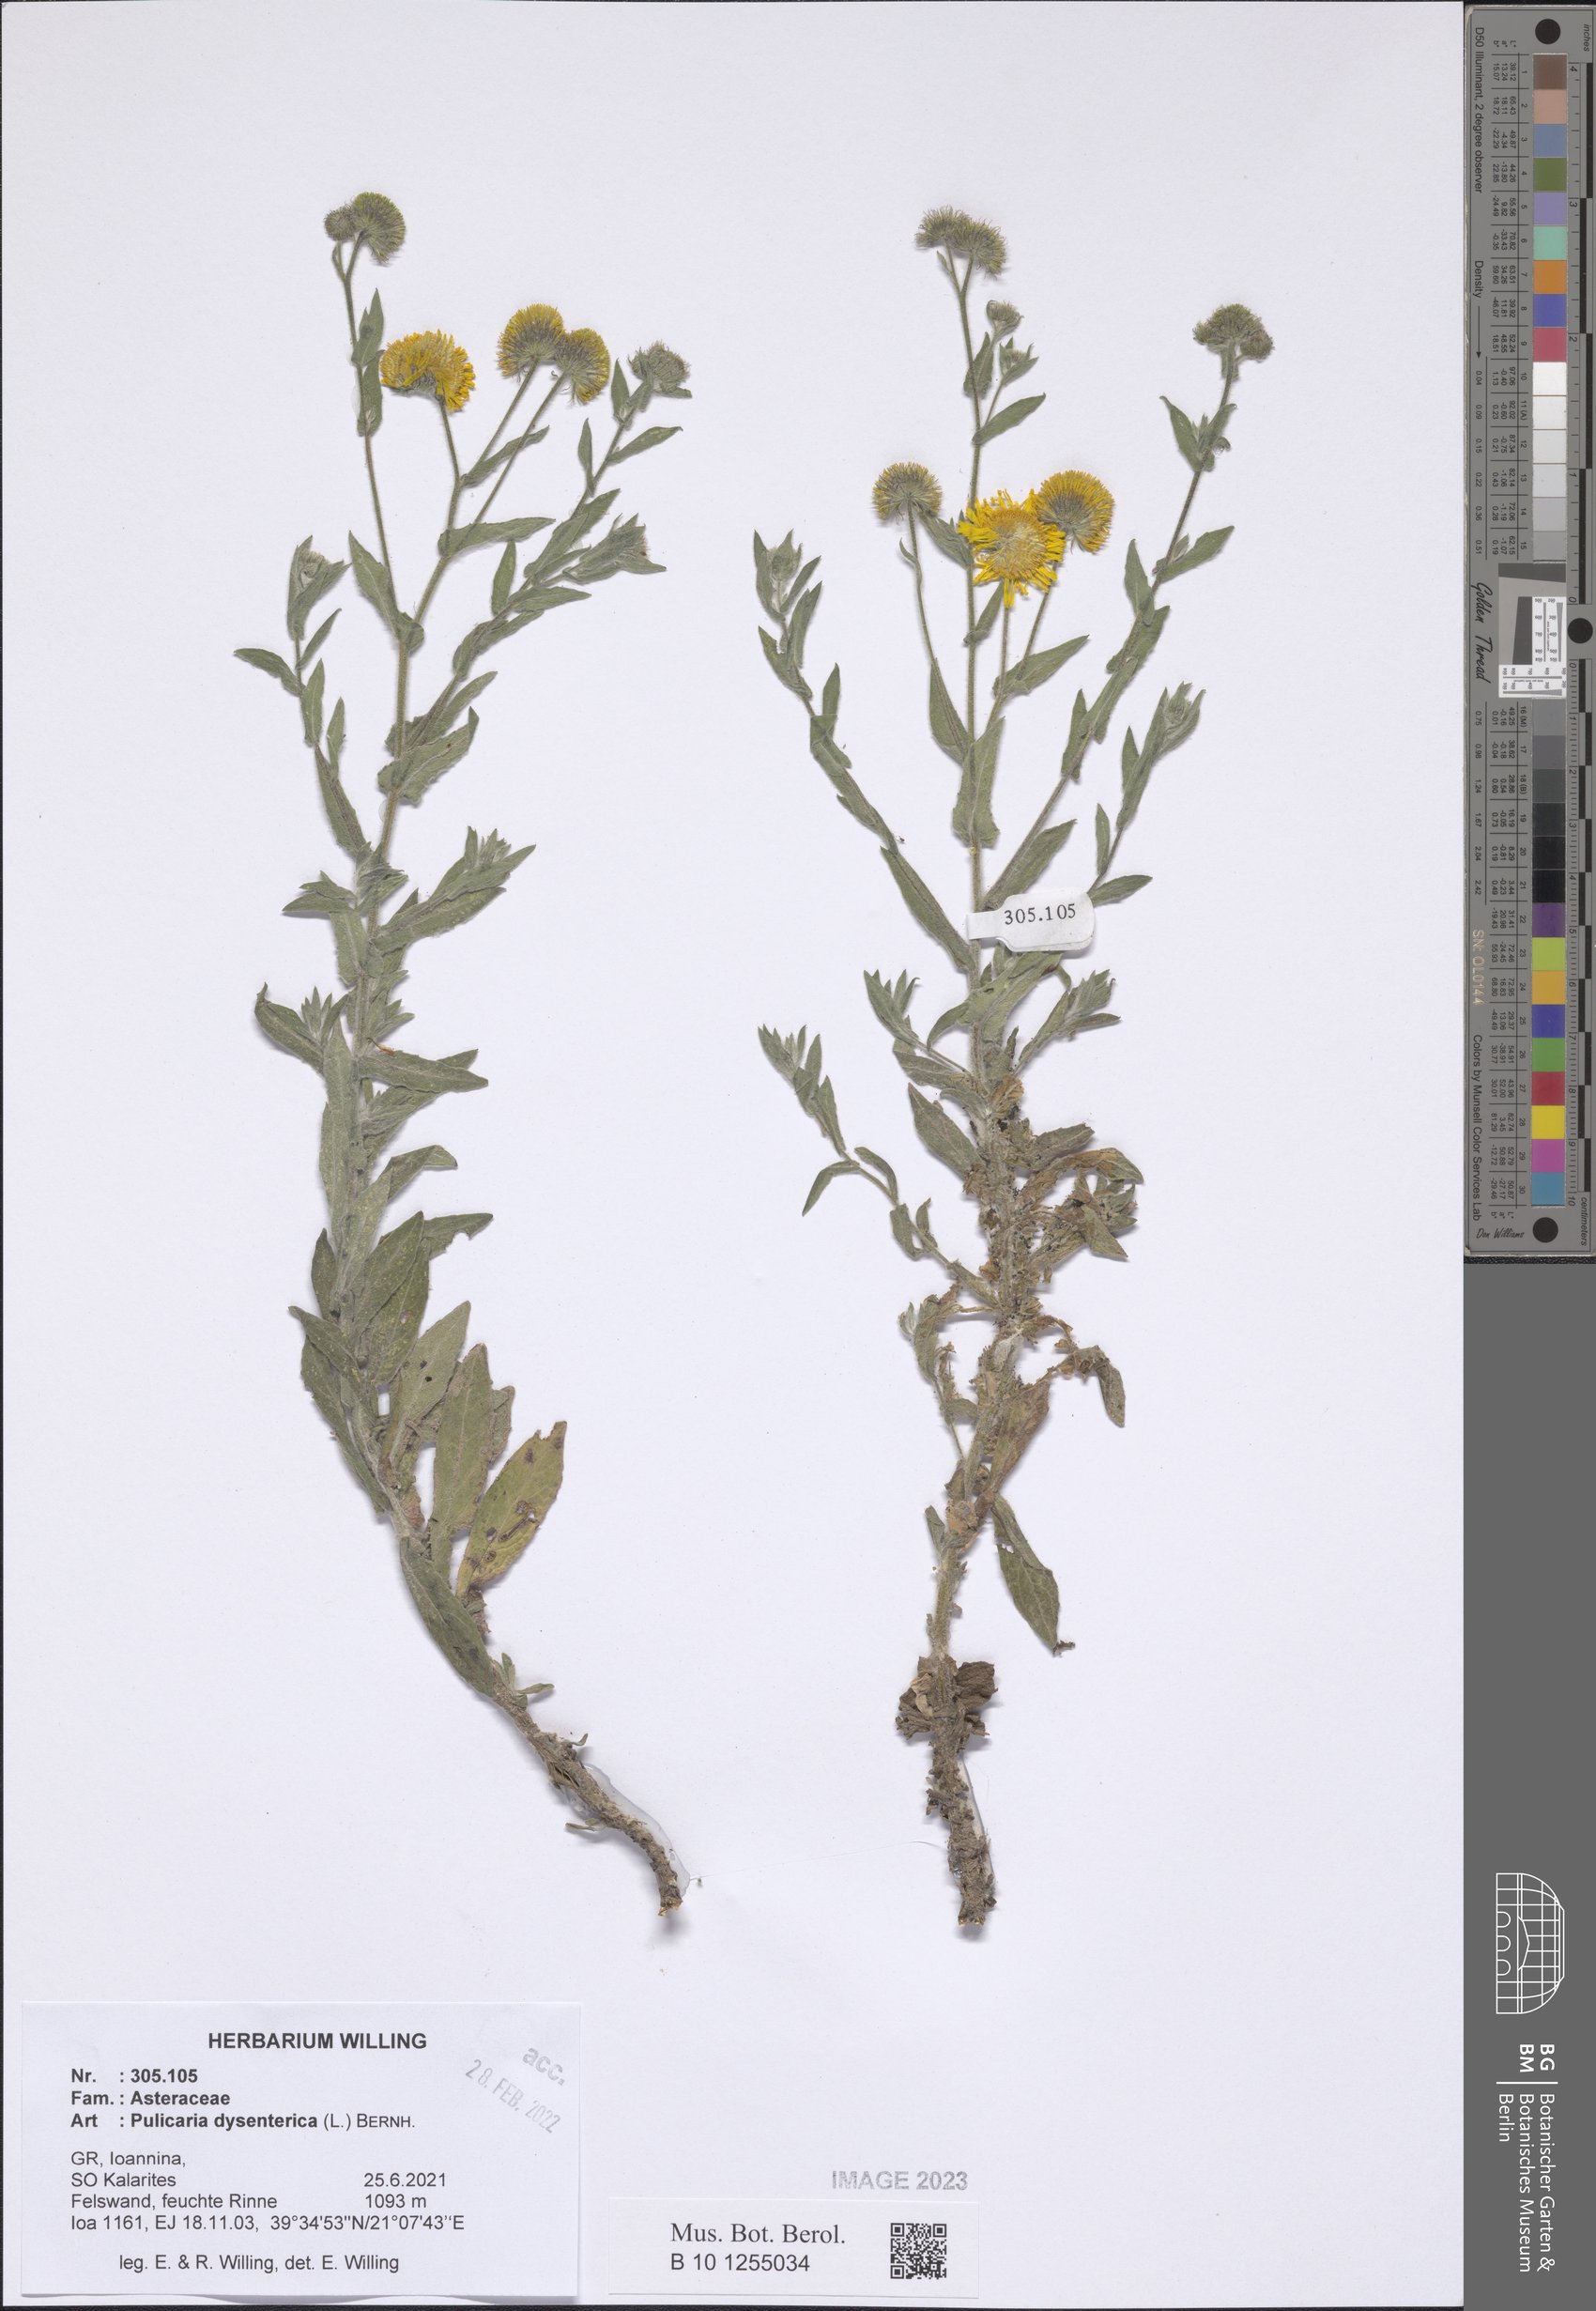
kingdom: Plantae
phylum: Tracheophyta
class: Magnoliopsida
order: Asterales
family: Asteraceae
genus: Pulicaria
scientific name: Pulicaria dysenterica
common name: Common fleabane
